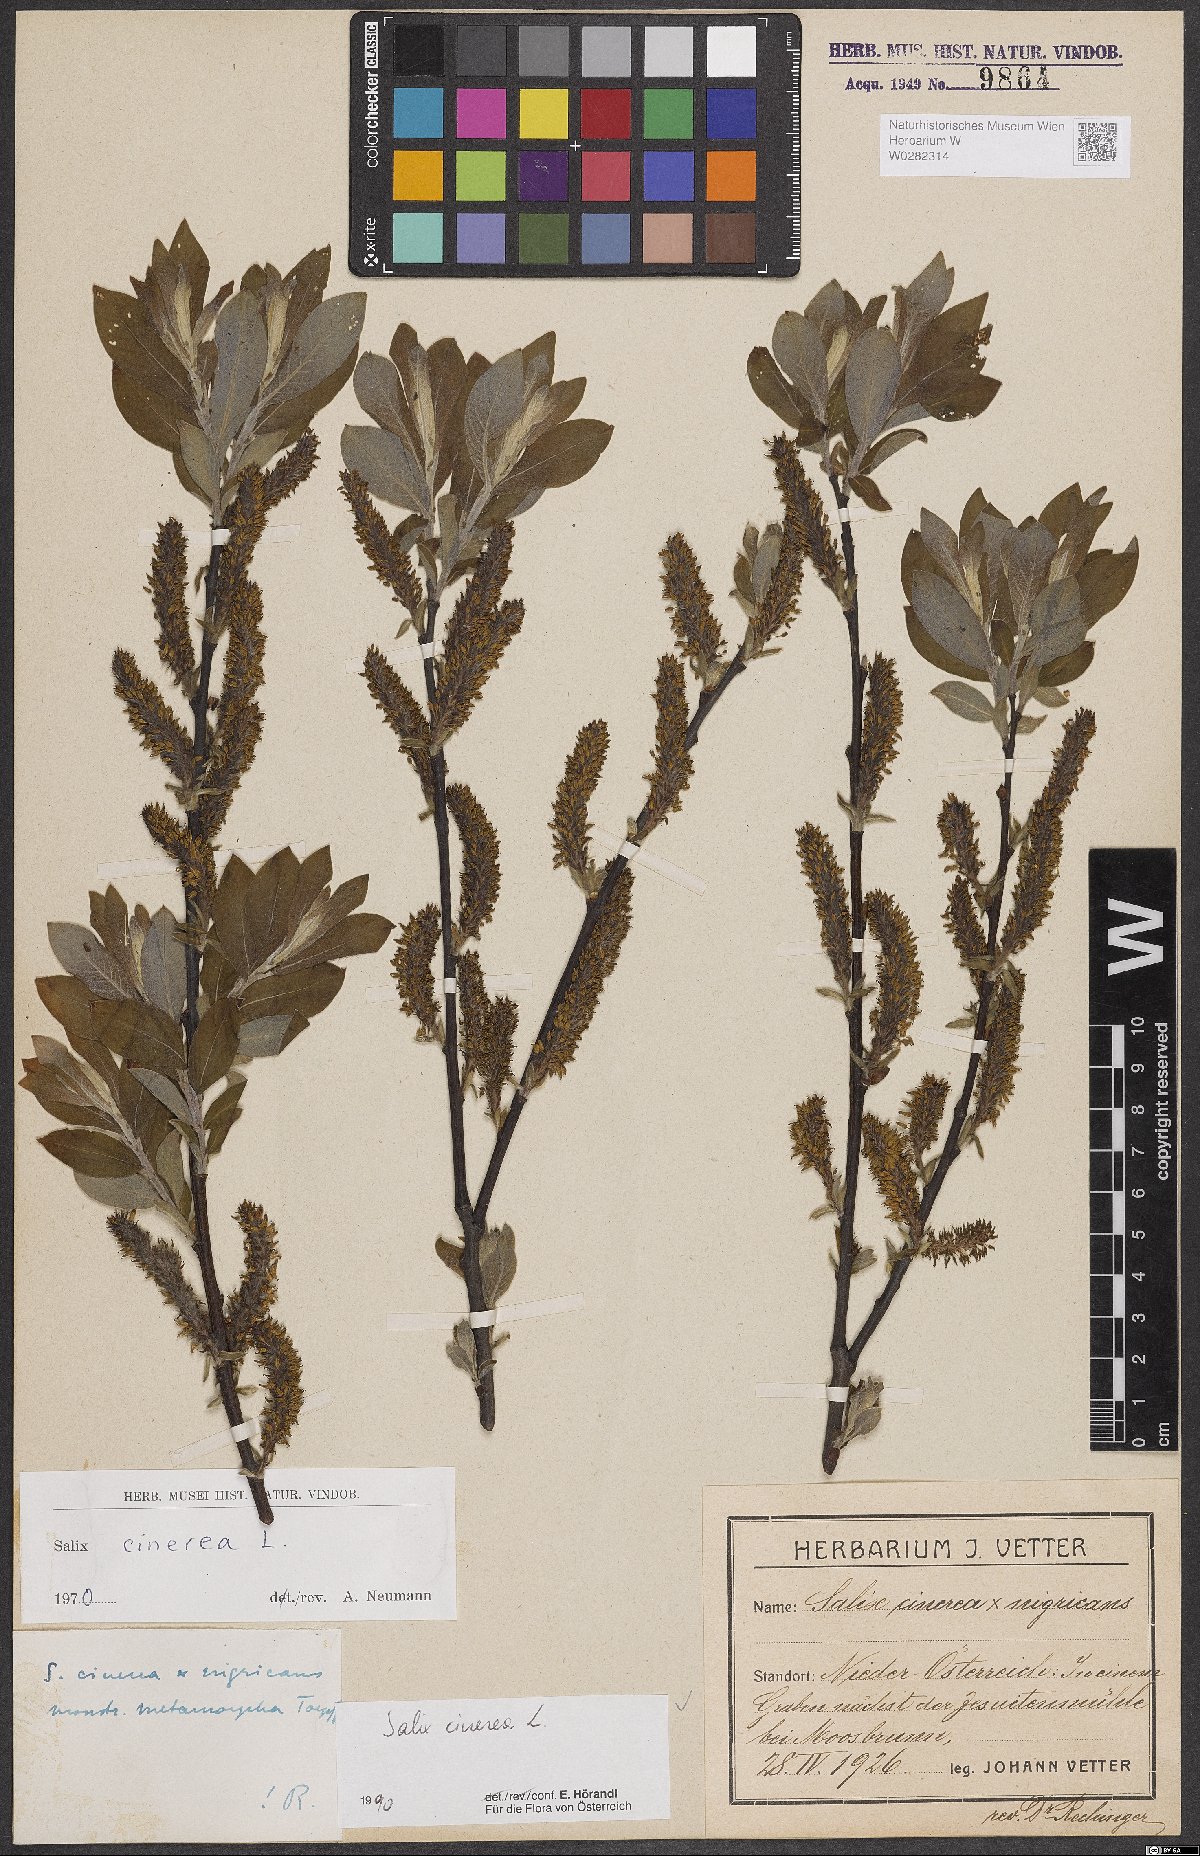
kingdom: Plantae
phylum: Tracheophyta
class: Magnoliopsida
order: Malpighiales
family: Salicaceae
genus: Salix
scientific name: Salix cinerea
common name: Common sallow
